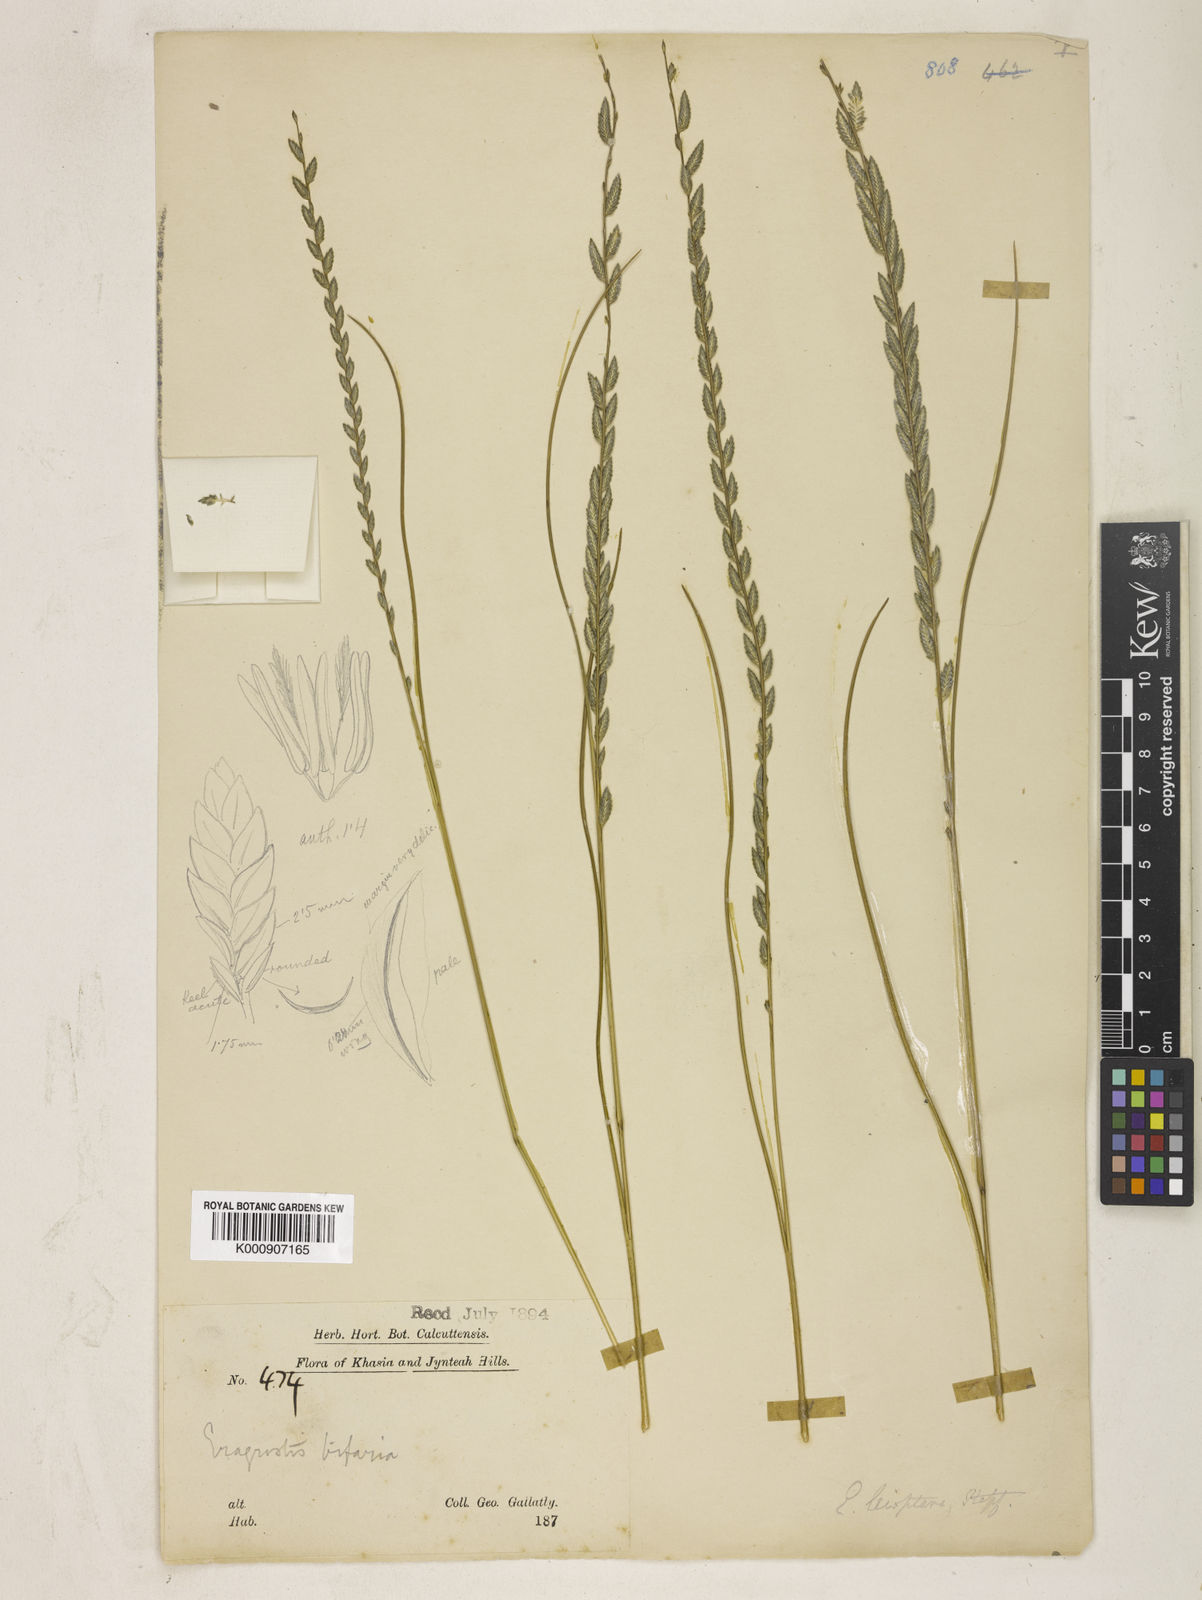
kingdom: Plantae
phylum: Tracheophyta
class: Liliopsida
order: Poales
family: Poaceae
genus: Eragrostiella
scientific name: Eragrostiella leioptera
